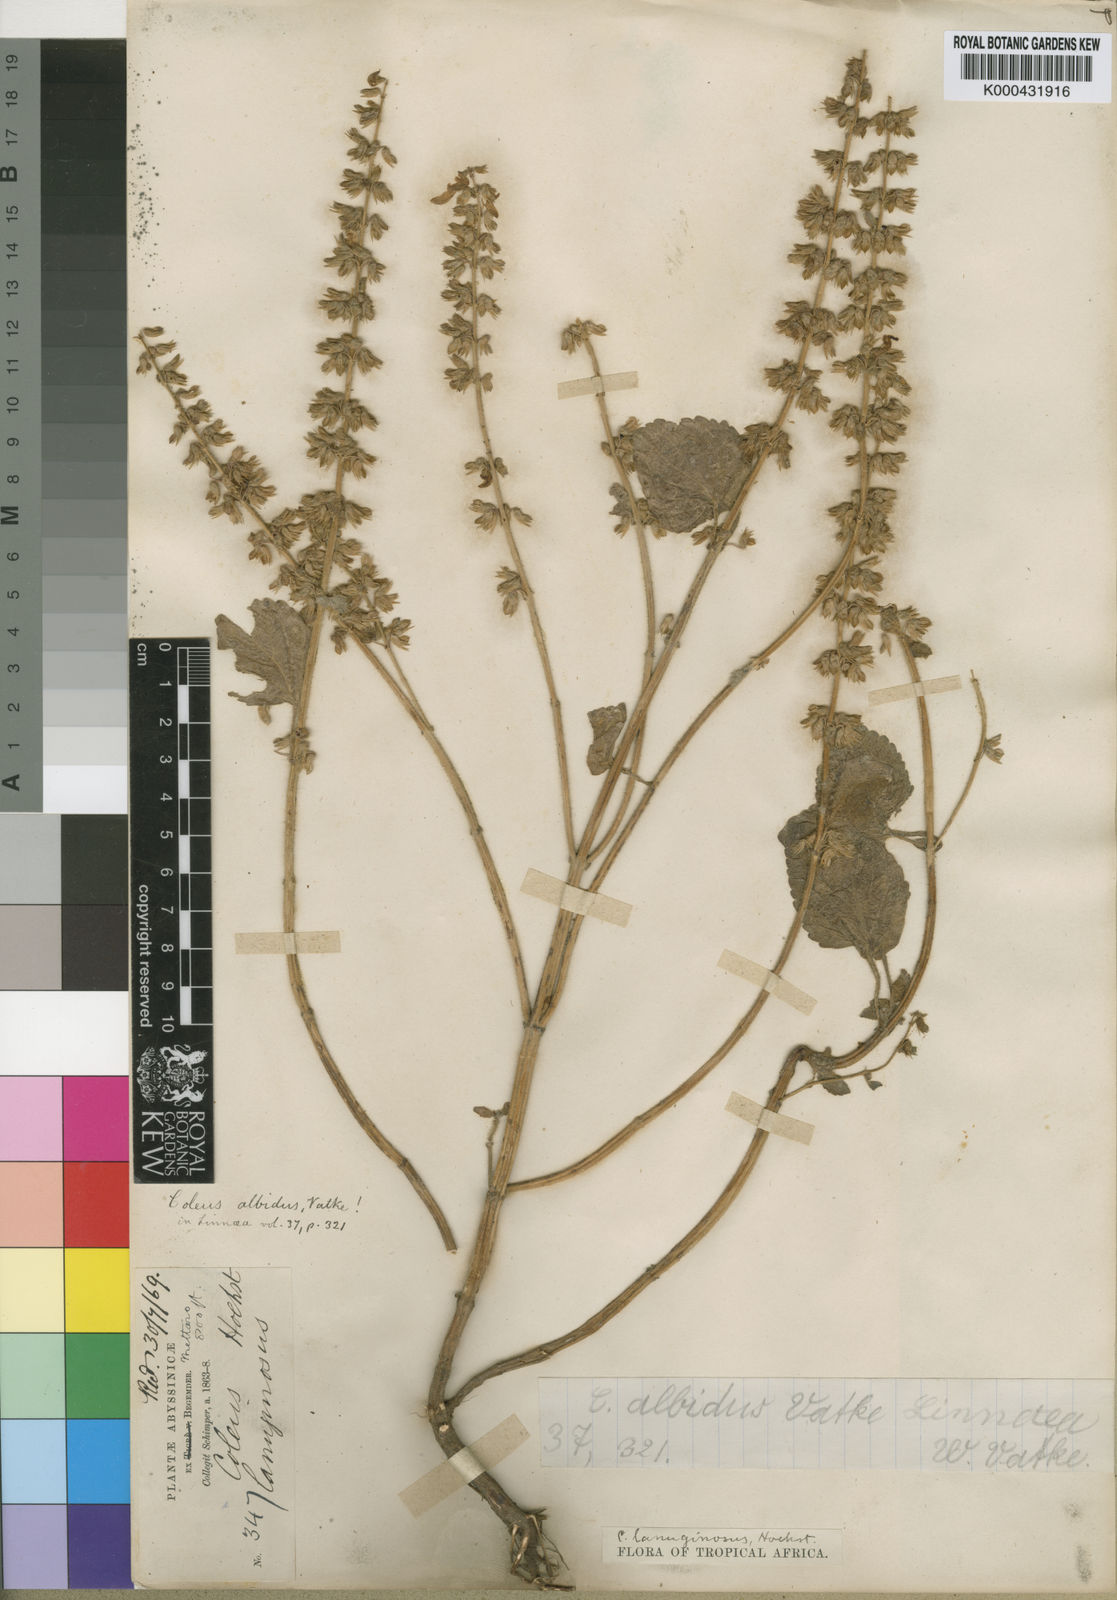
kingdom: Plantae
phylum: Tracheophyta
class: Magnoliopsida
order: Lamiales
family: Lamiaceae
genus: Coleus
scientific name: Coleus lanuginosus
